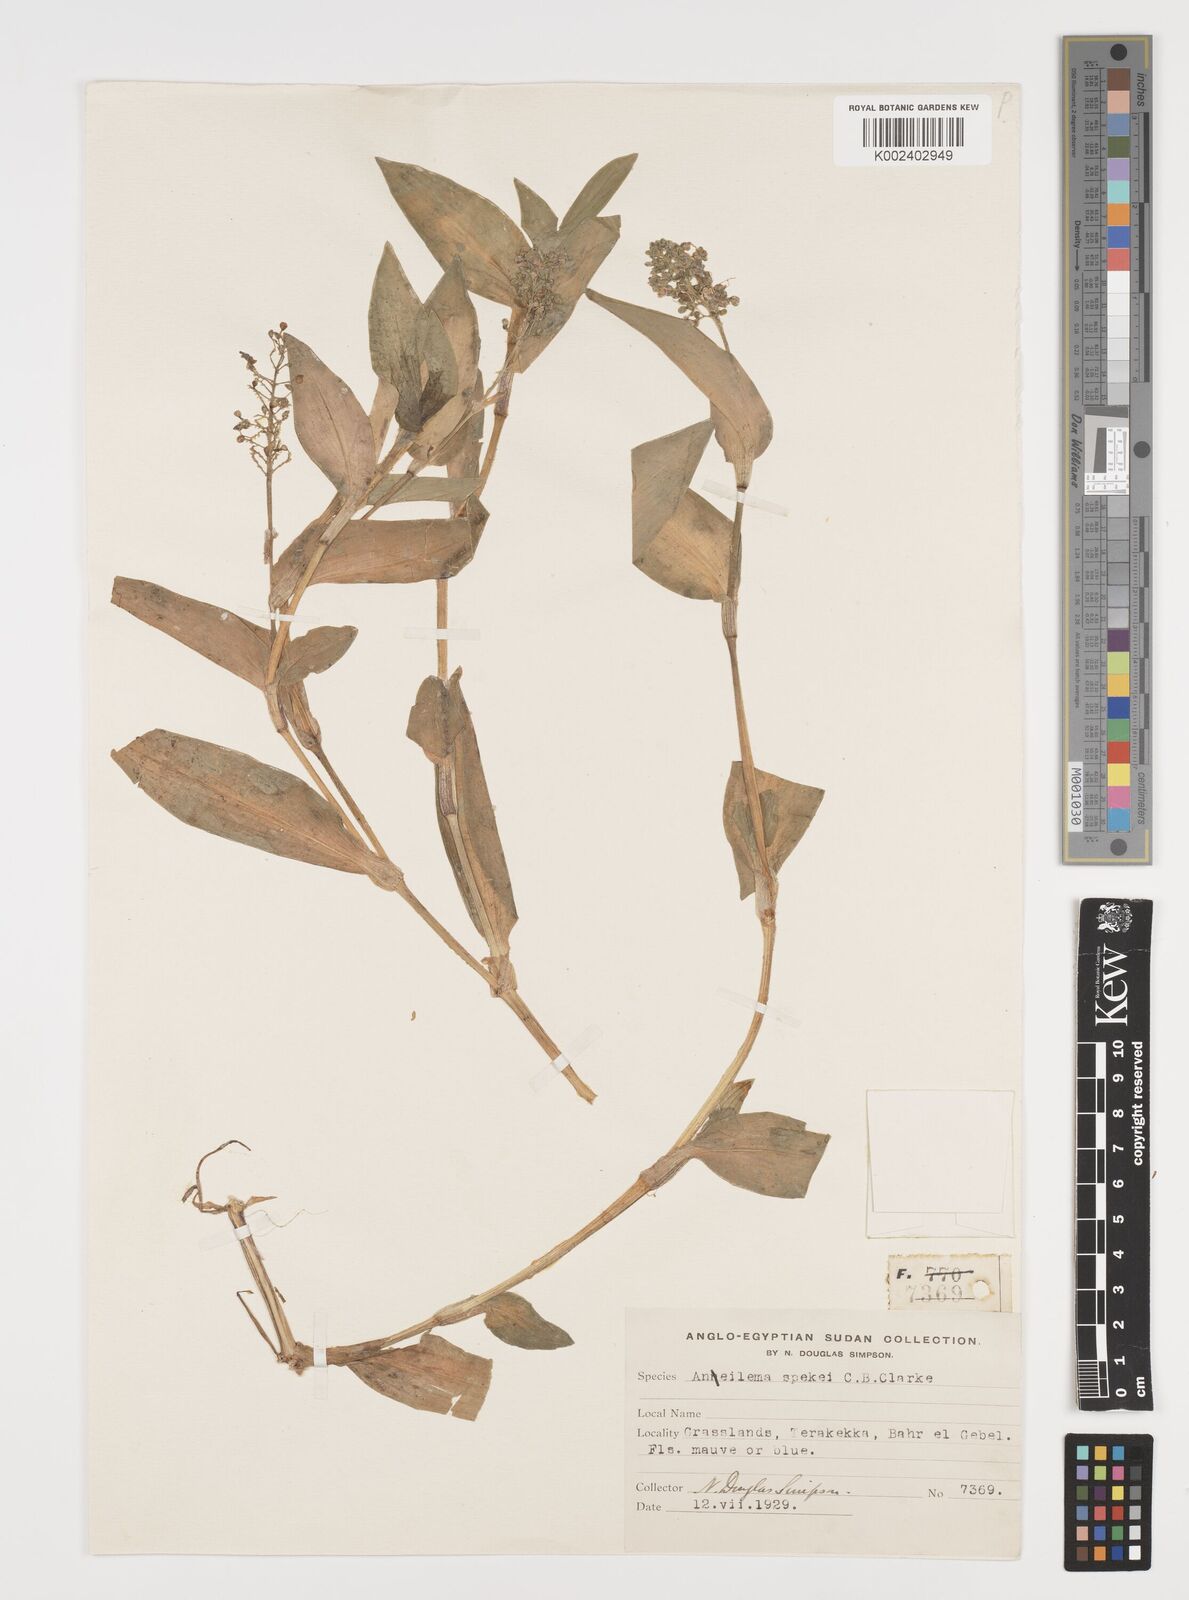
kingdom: Plantae
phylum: Tracheophyta
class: Liliopsida
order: Commelinales
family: Commelinaceae
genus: Aneilema
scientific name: Aneilema spekei
